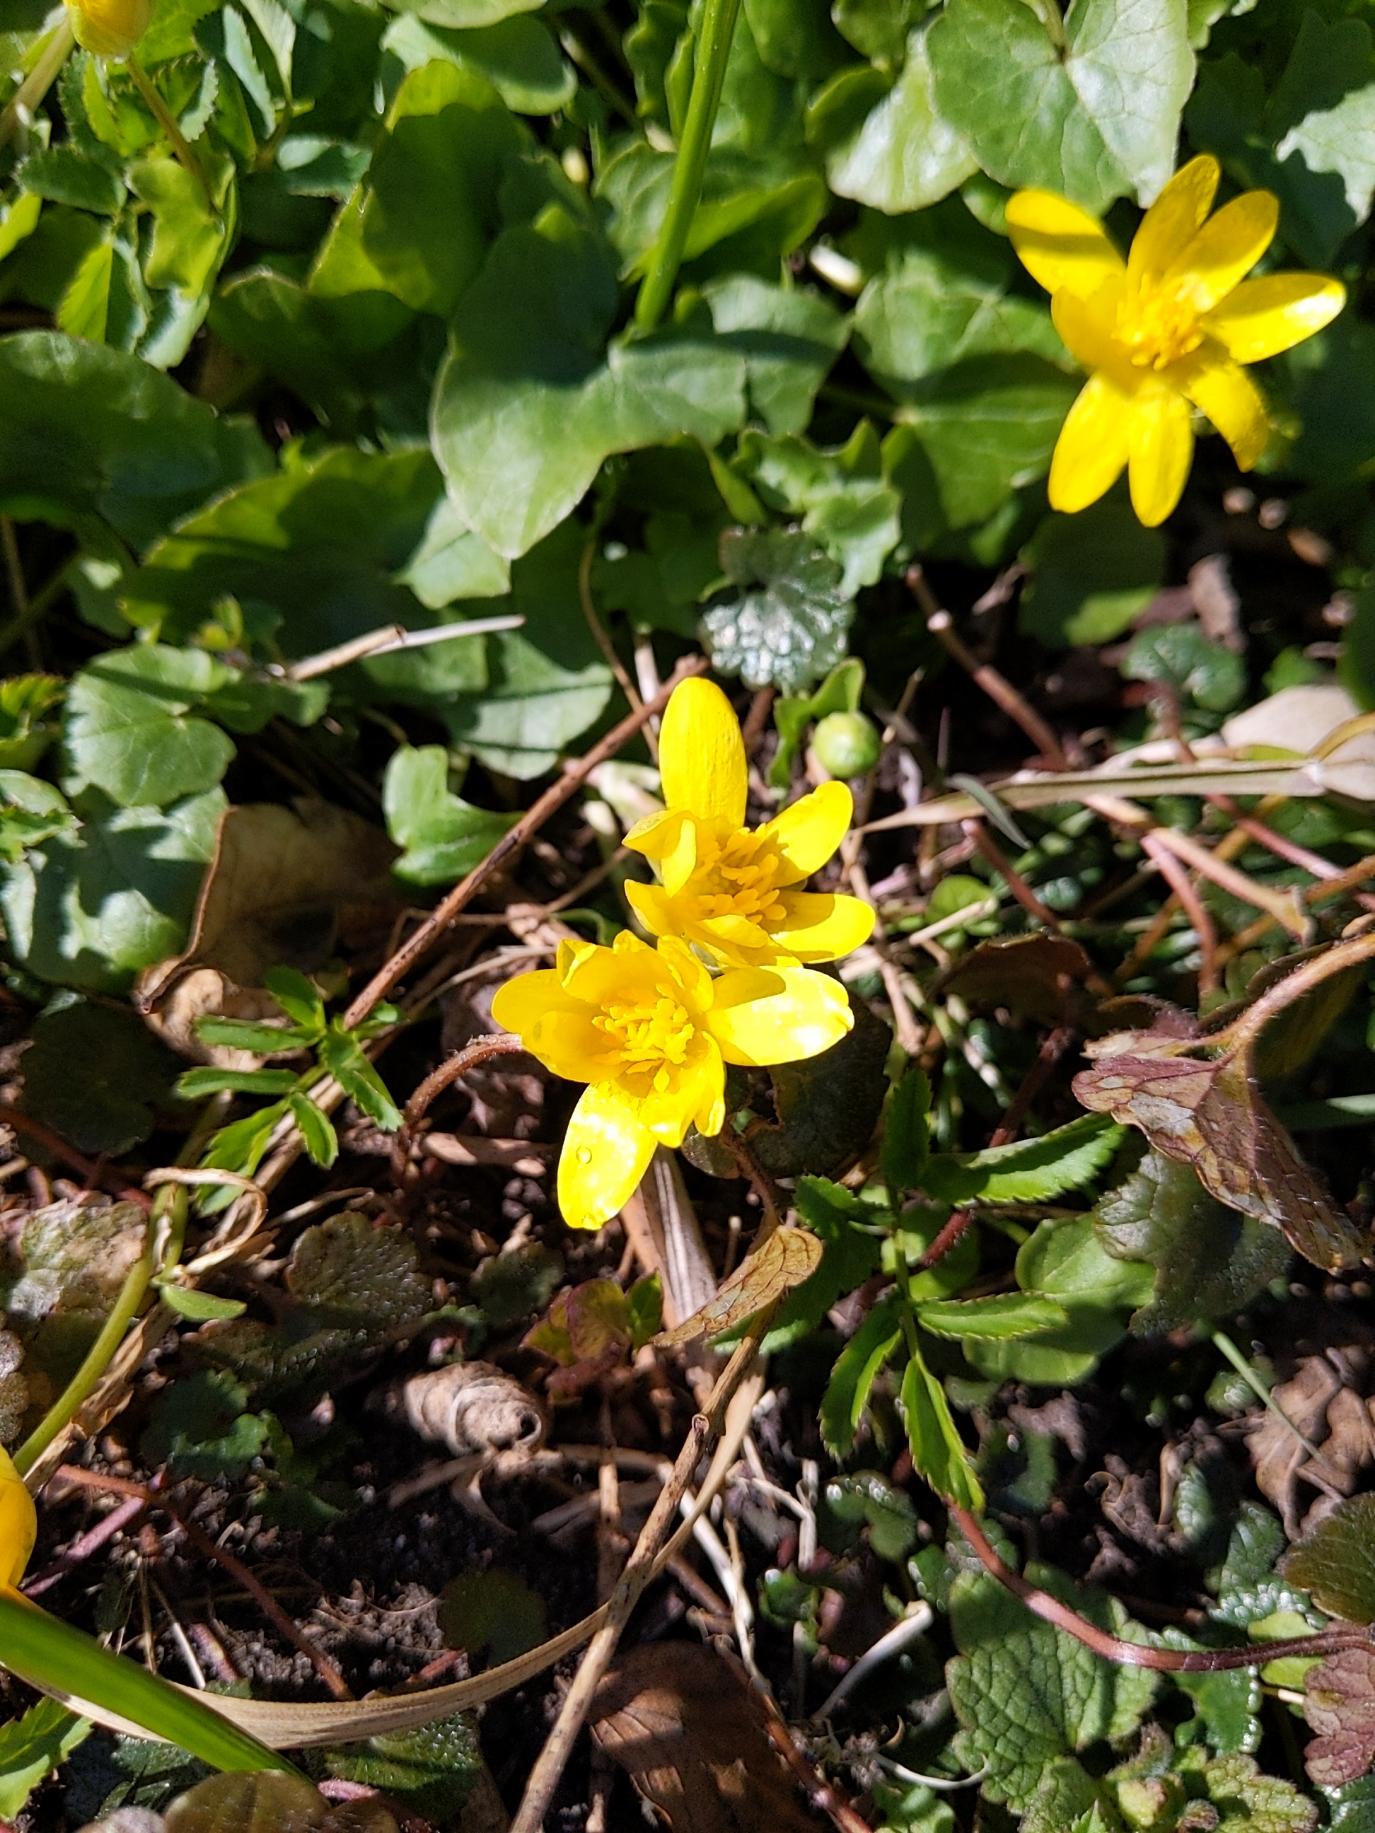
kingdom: Plantae
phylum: Tracheophyta
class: Magnoliopsida
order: Ranunculales
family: Ranunculaceae
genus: Ficaria
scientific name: Ficaria verna
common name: Vorterod
